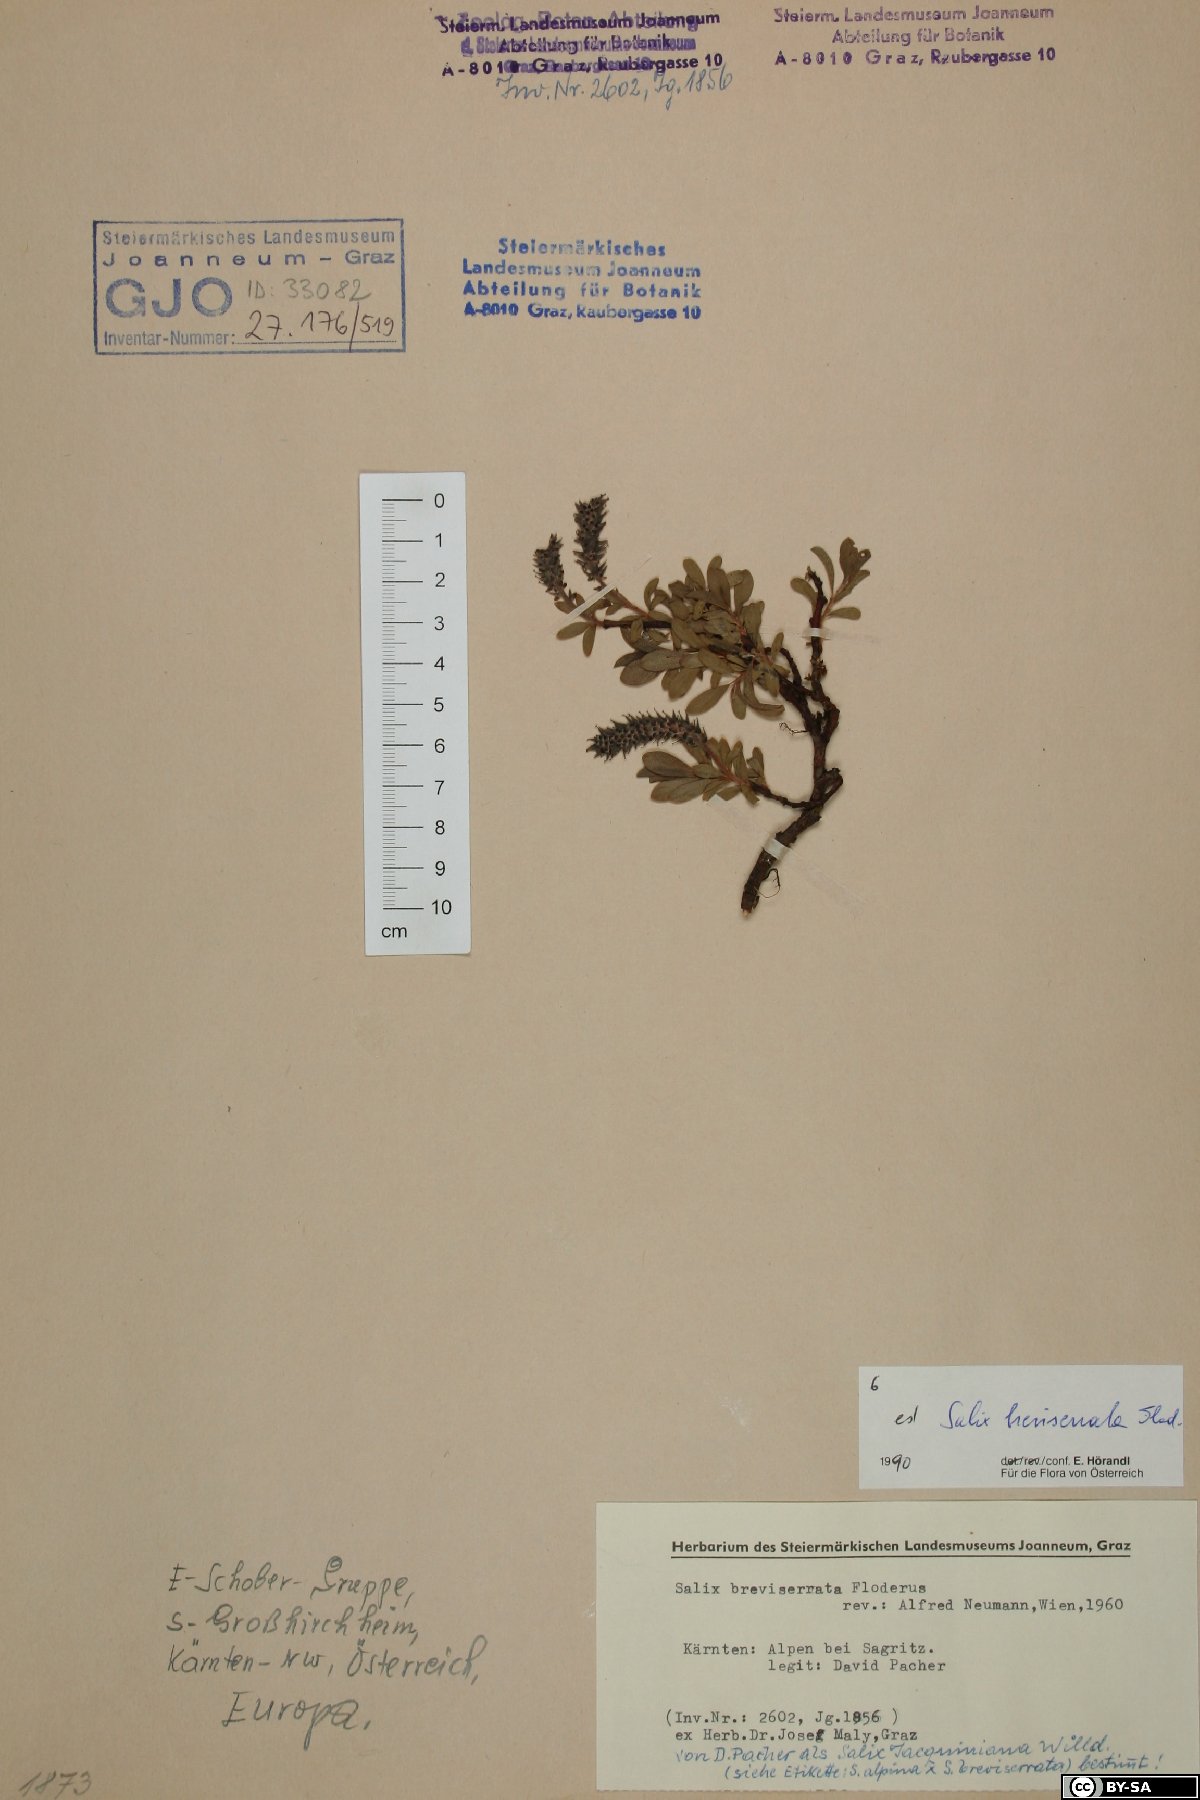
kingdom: Plantae
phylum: Tracheophyta
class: Magnoliopsida
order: Malpighiales
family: Salicaceae
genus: Salix
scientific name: Salix breviserrata
